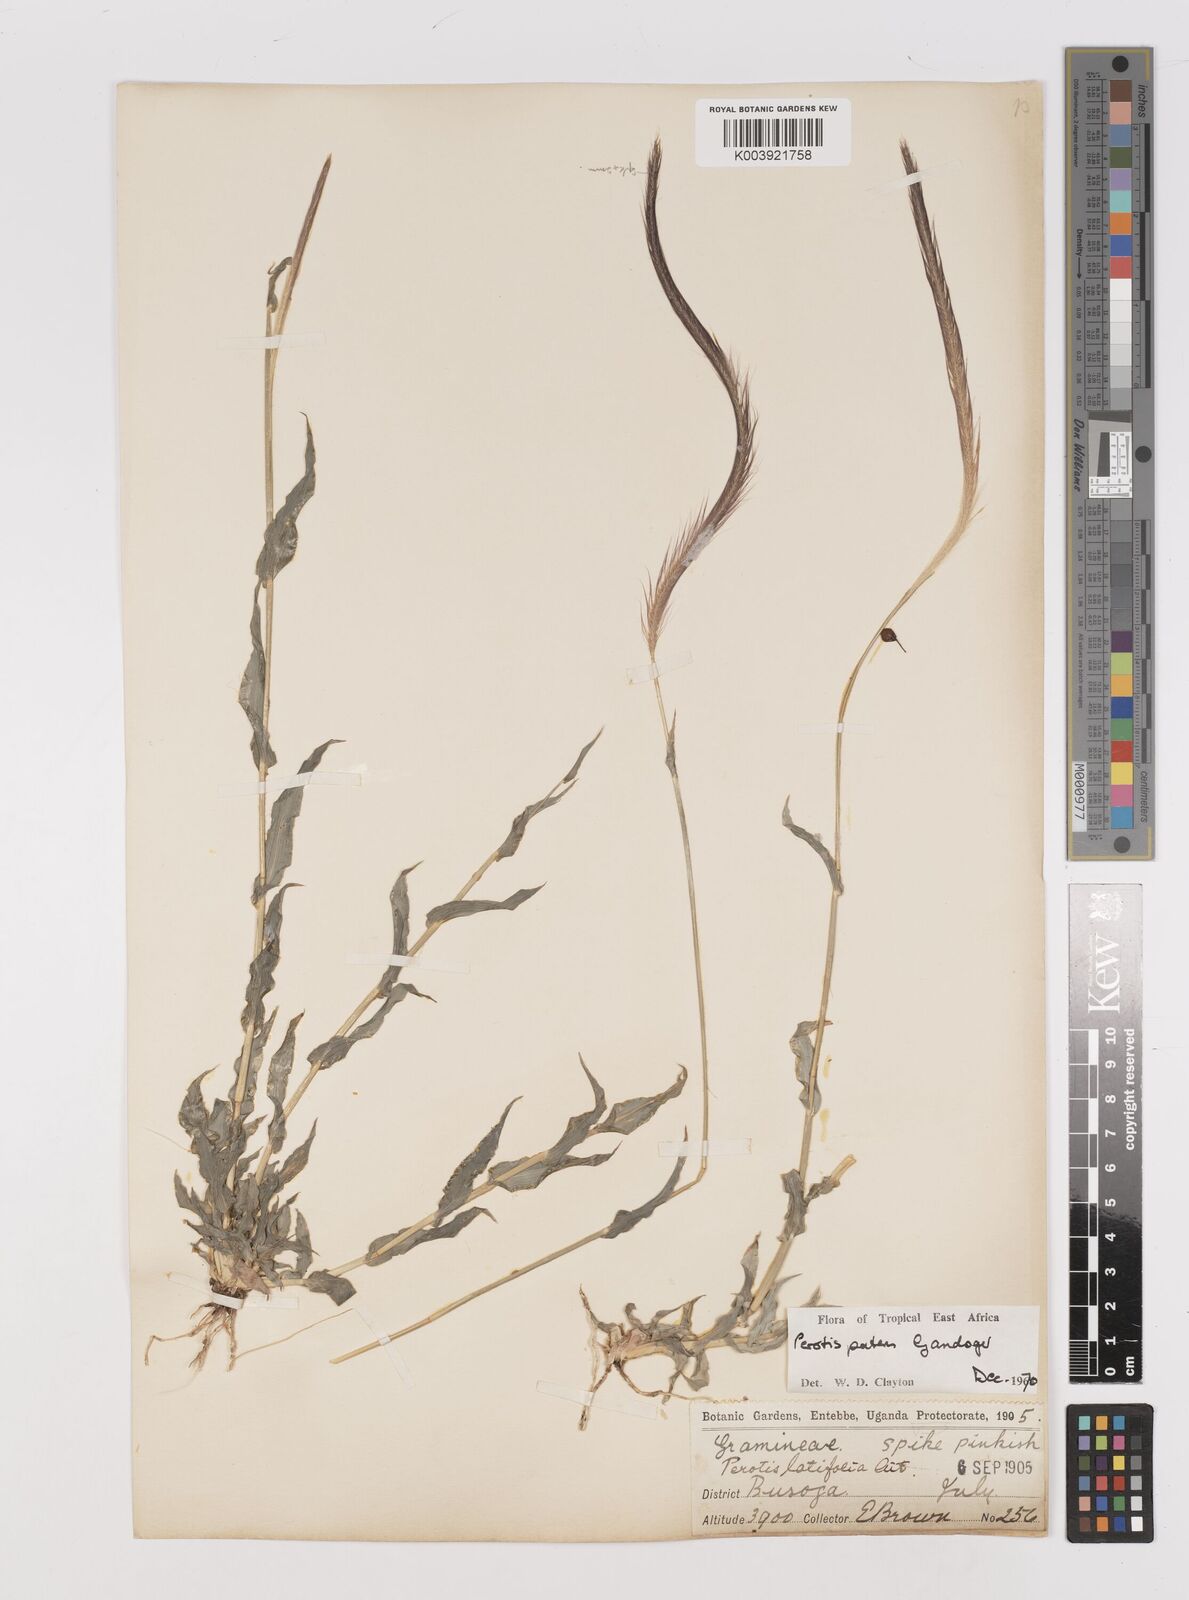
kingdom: Plantae
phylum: Tracheophyta
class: Liliopsida
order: Poales
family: Poaceae
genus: Perotis
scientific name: Perotis patens
